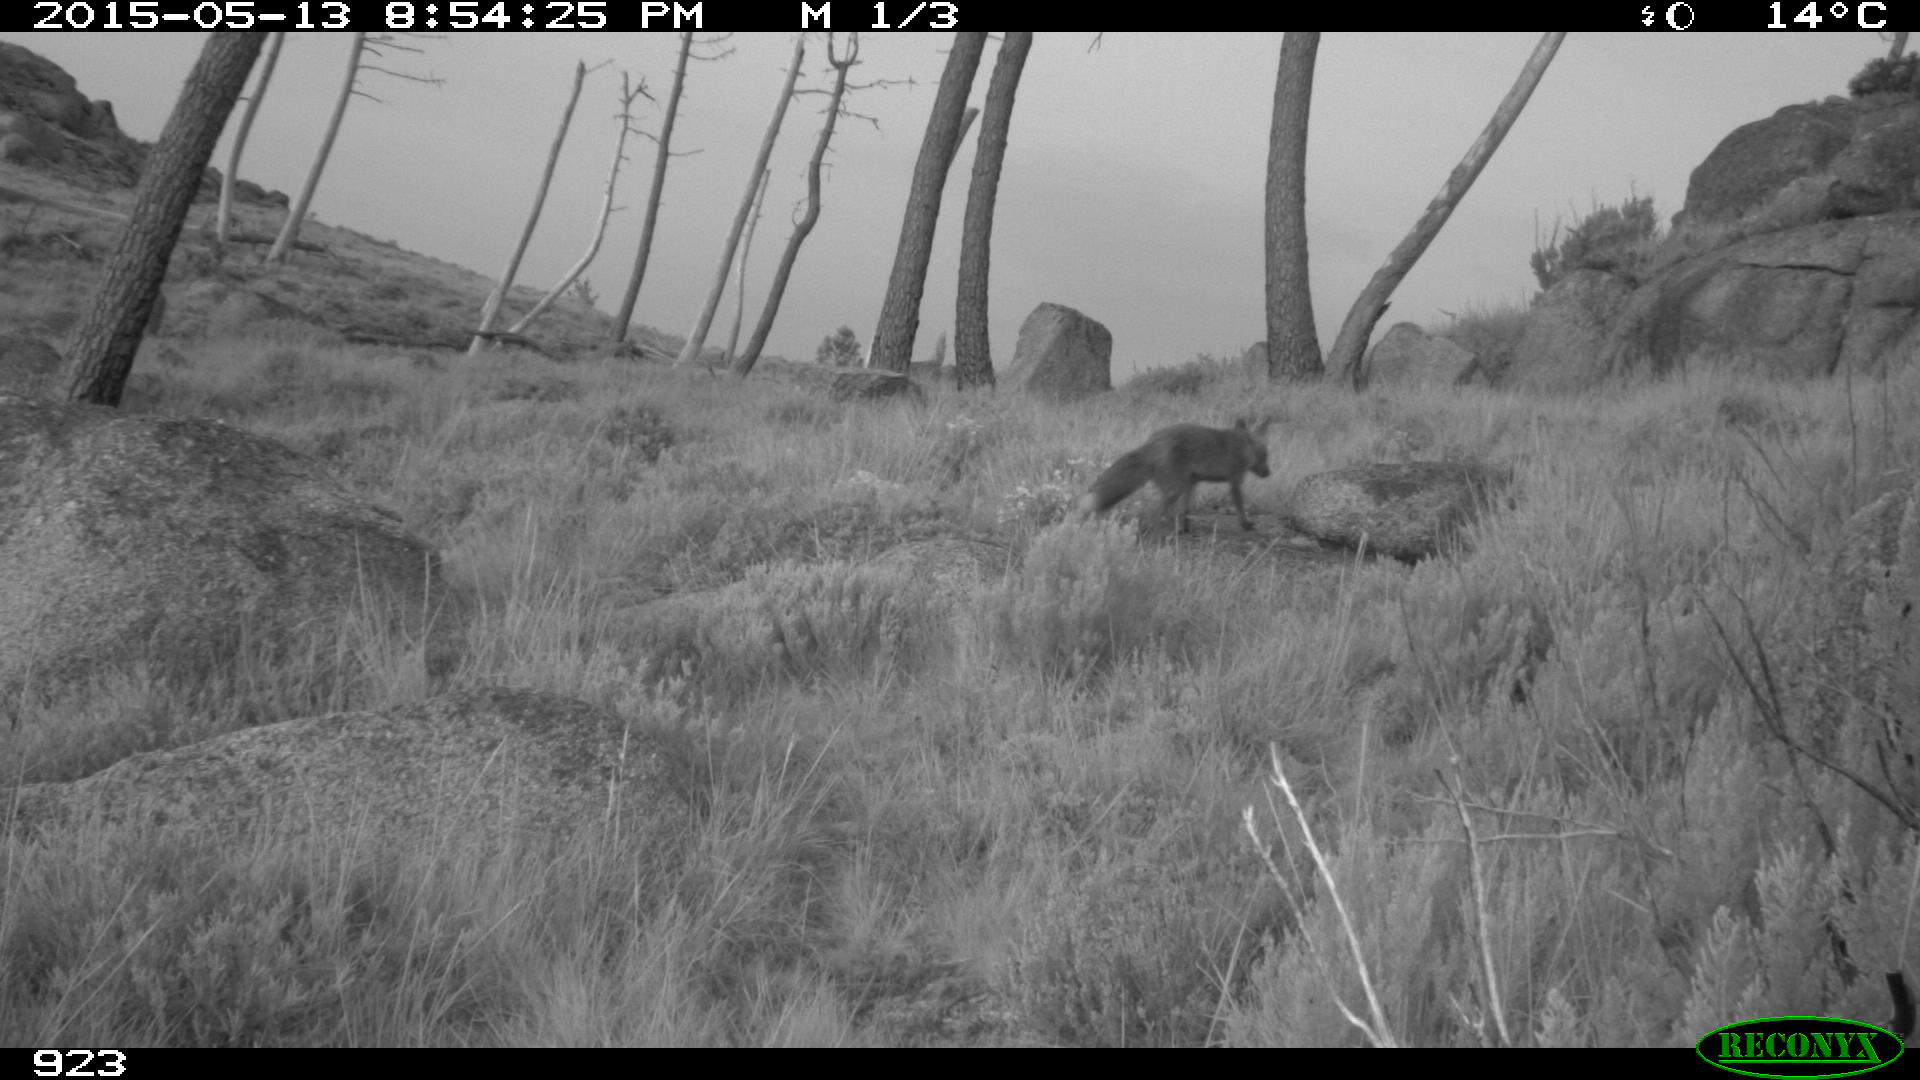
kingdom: Animalia
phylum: Chordata
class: Mammalia
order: Carnivora
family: Canidae
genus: Vulpes
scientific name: Vulpes vulpes
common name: Red fox
